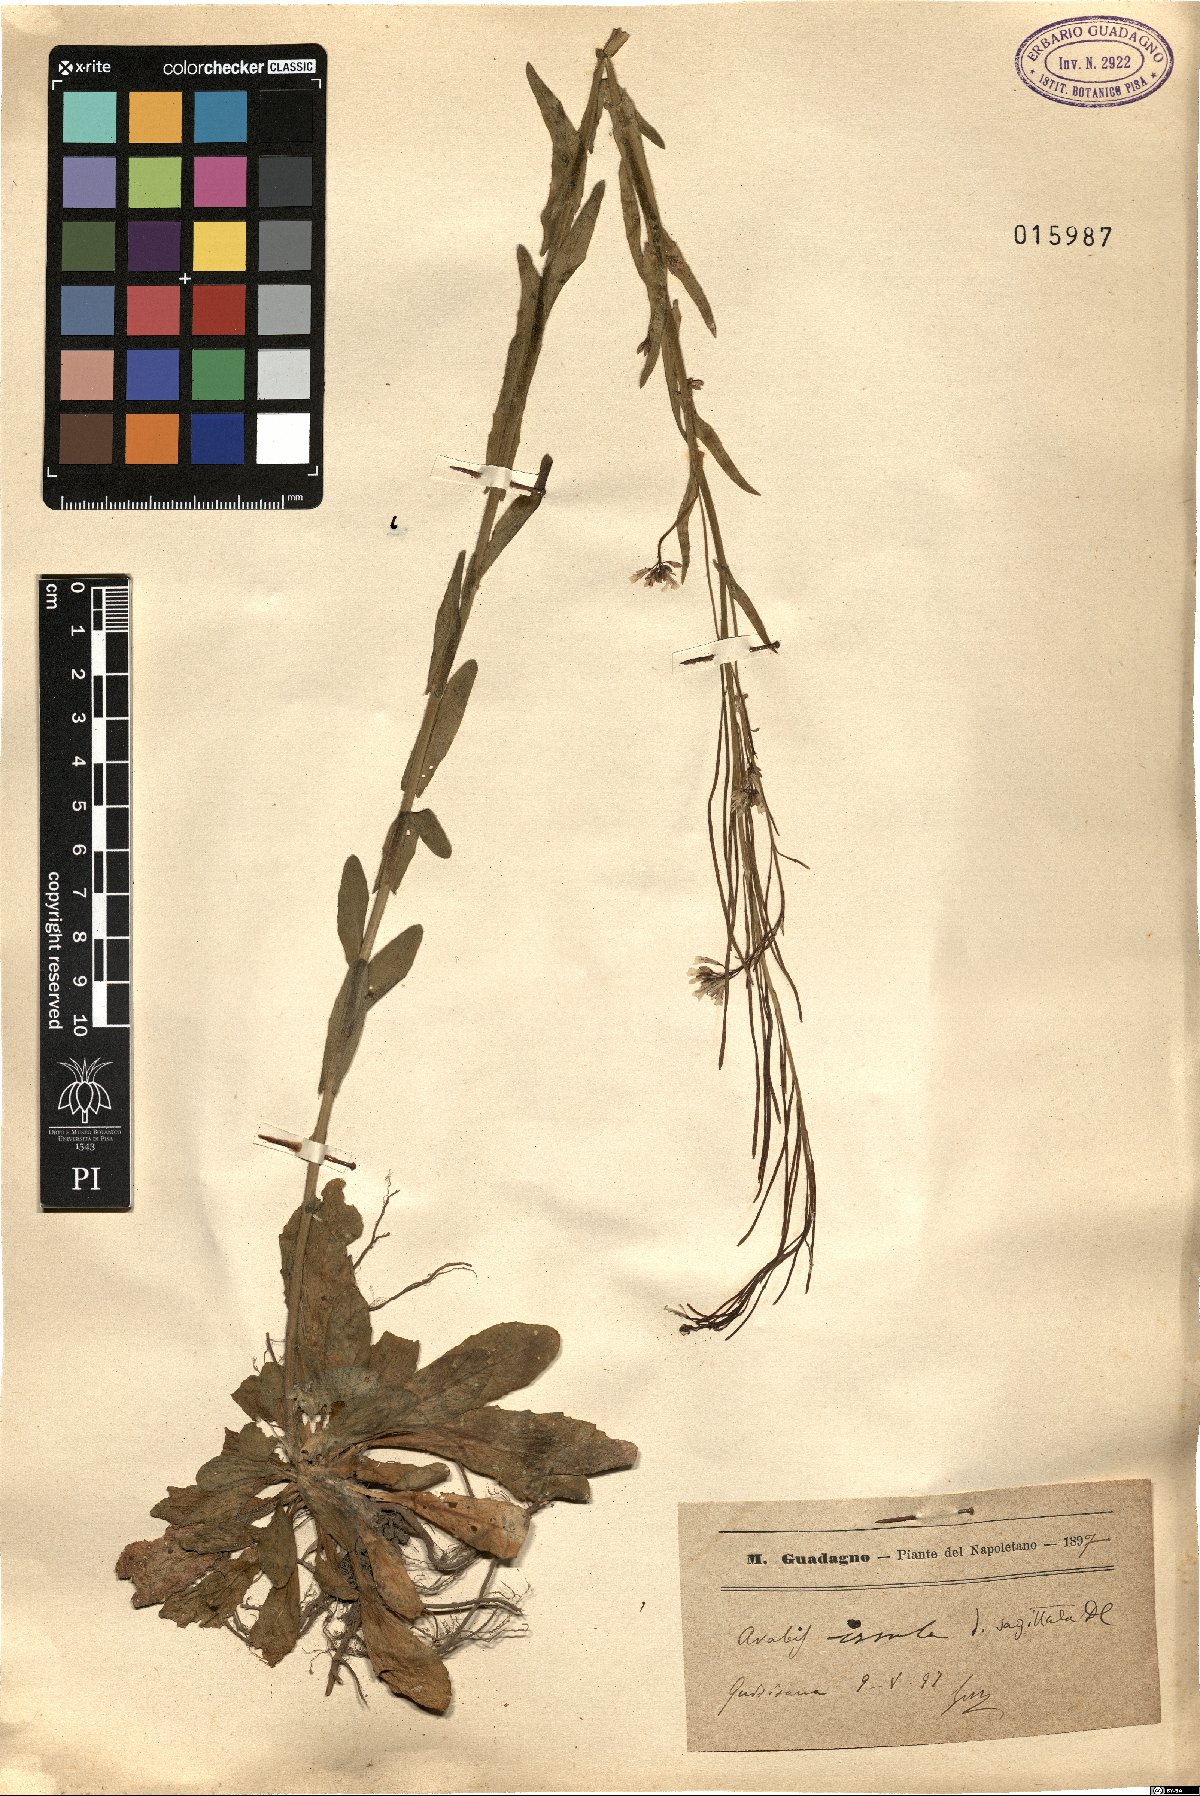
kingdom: Plantae
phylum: Tracheophyta
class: Magnoliopsida
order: Brassicales
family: Brassicaceae
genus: Arabis
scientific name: Arabis sagittata
